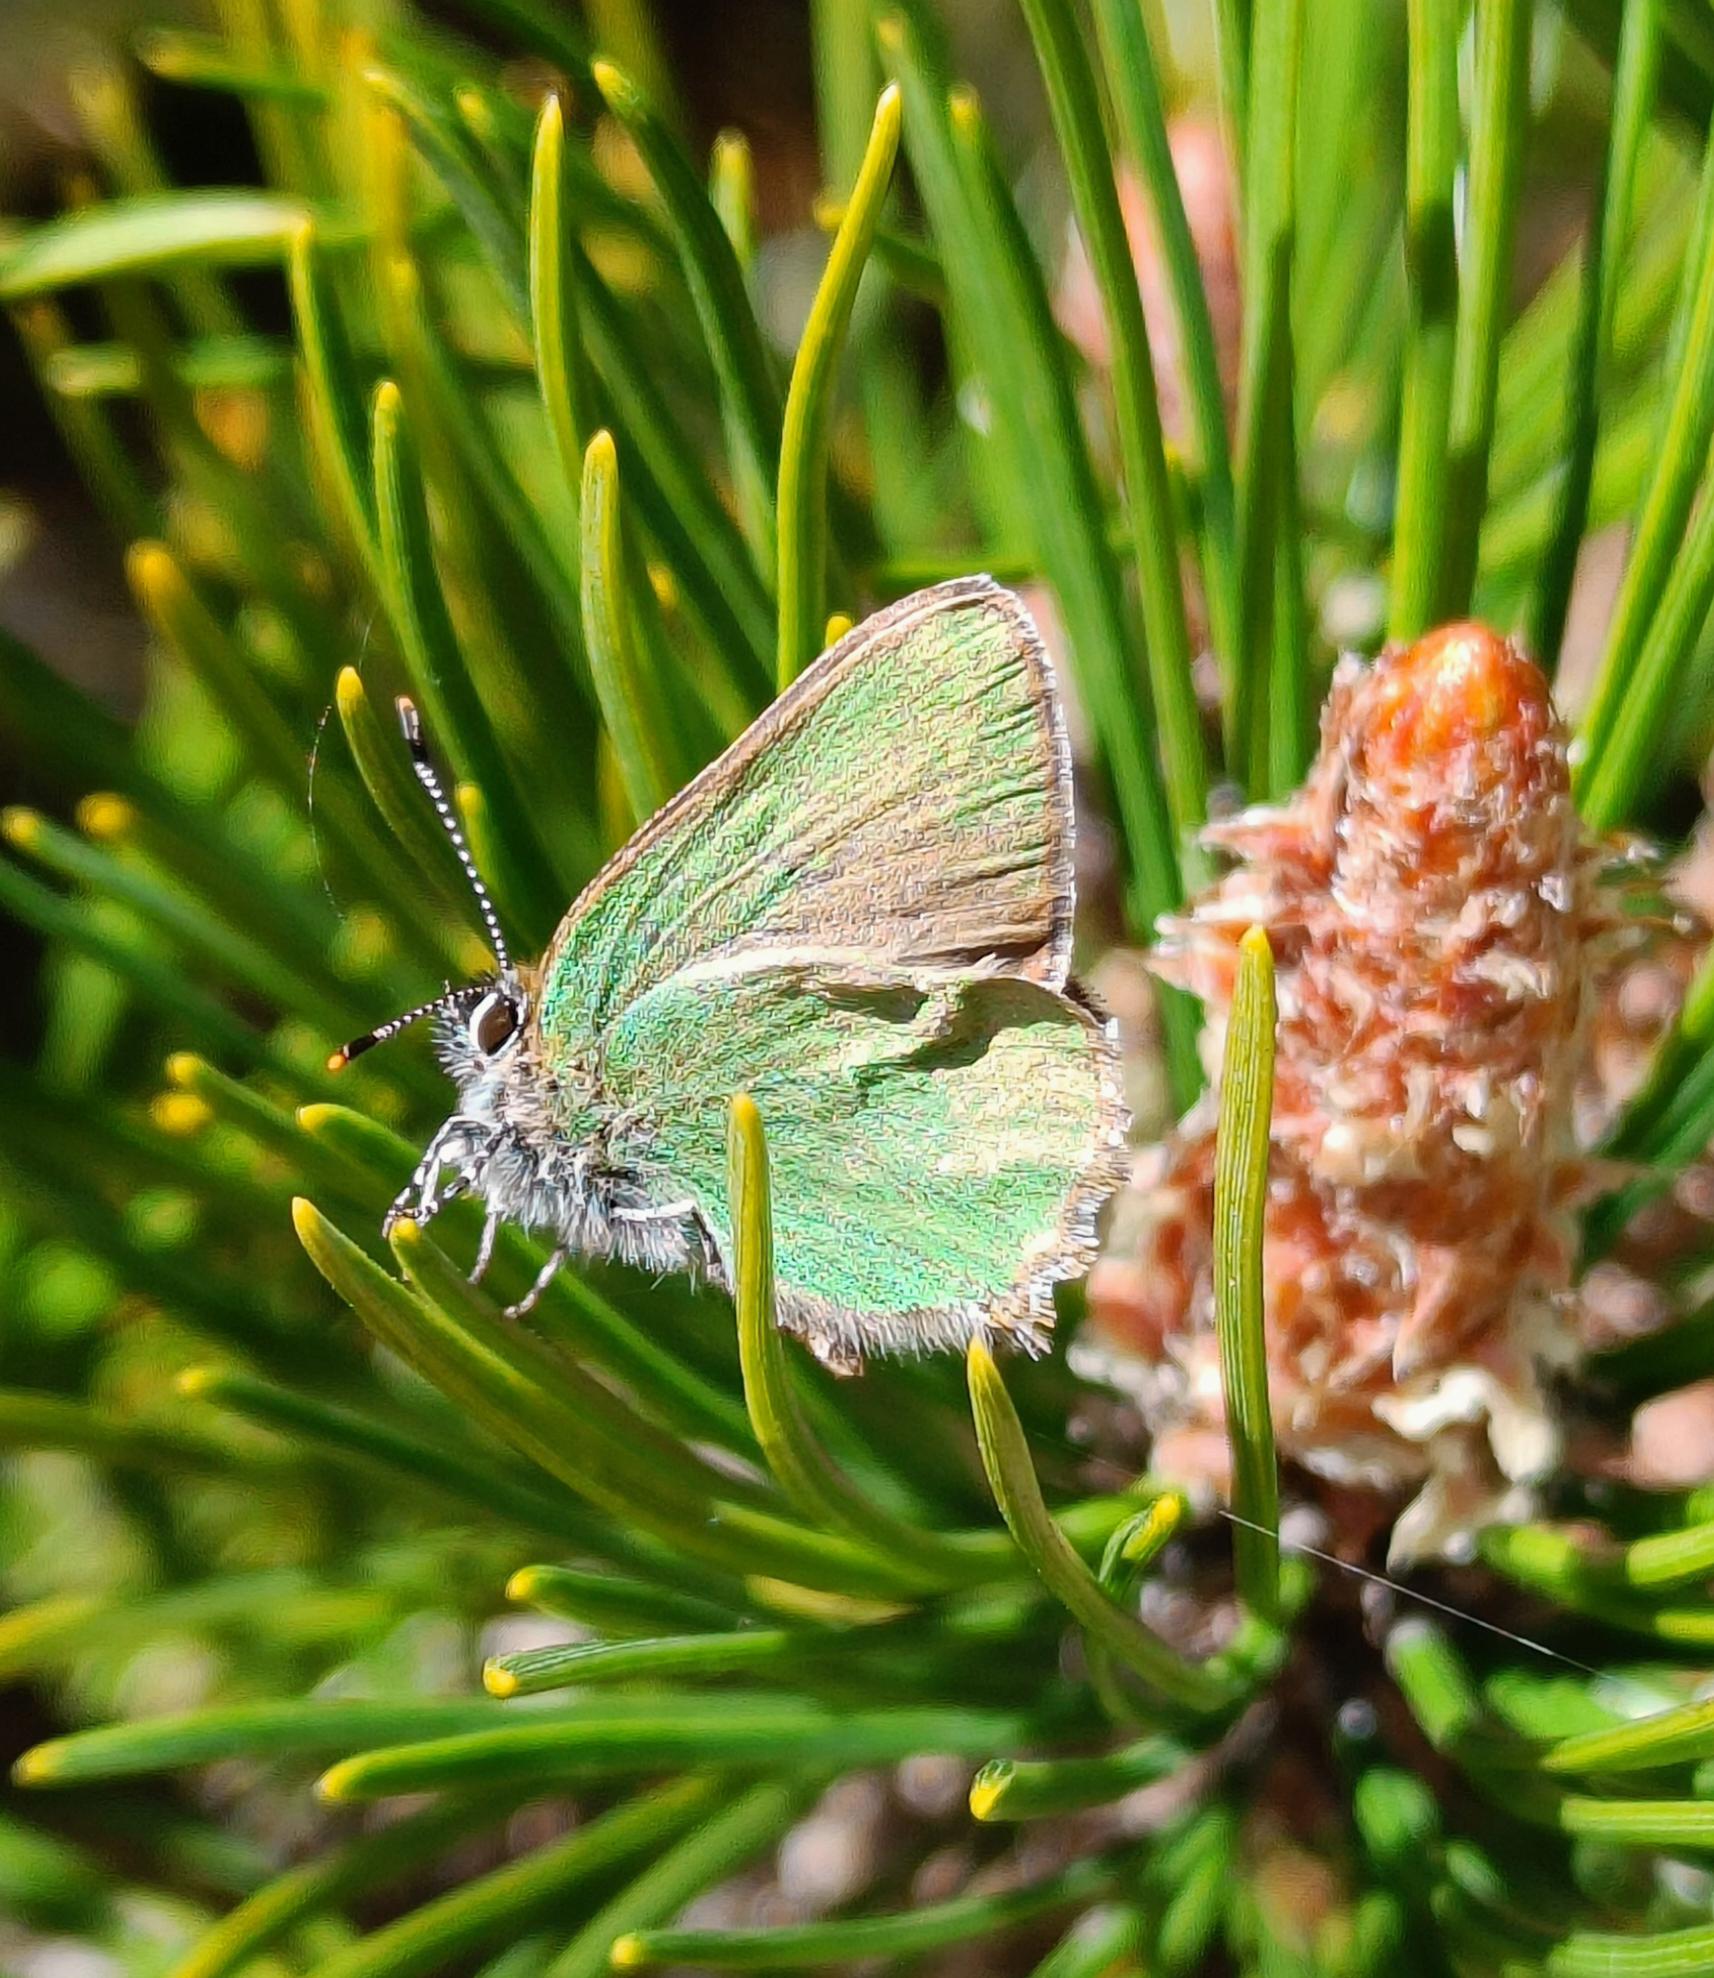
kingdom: Animalia
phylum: Arthropoda
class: Insecta
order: Lepidoptera
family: Lycaenidae
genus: Callophrys
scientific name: Callophrys rubi
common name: Grøn busksommerfugl
